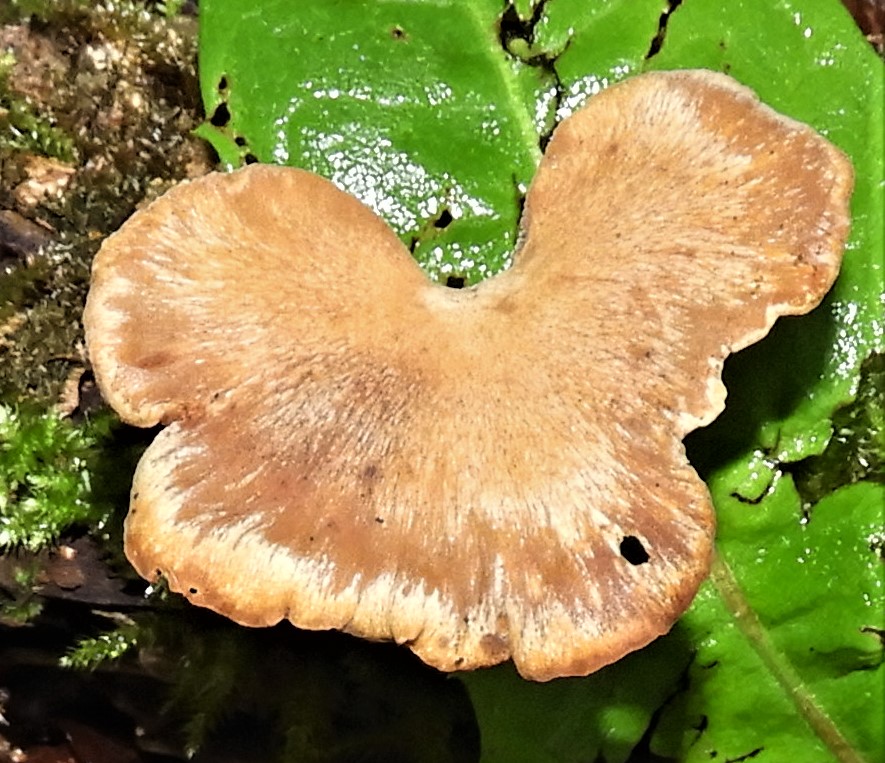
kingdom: Fungi
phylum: Basidiomycota
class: Agaricomycetes
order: Polyporales
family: Polyporaceae
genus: Cerioporus
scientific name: Cerioporus varius
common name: foranderlig stilkporesvamp
